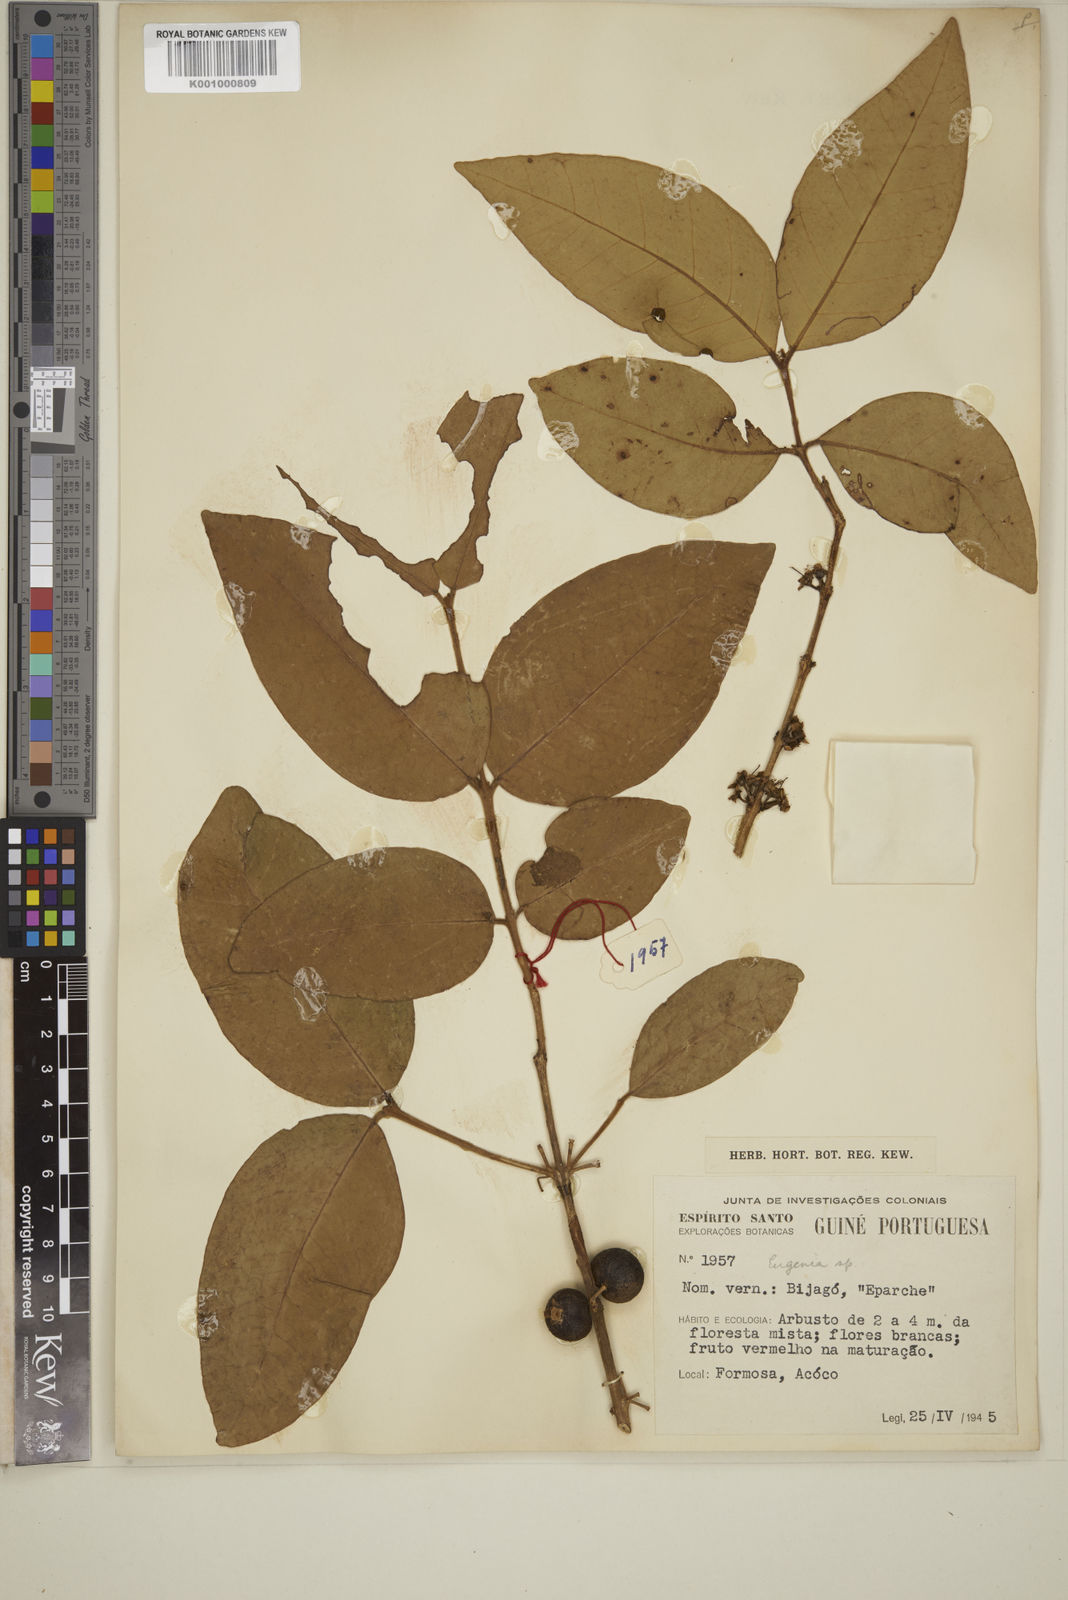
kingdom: Plantae
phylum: Tracheophyta
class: Magnoliopsida
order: Myrtales
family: Myrtaceae
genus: Eugenia
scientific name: Eugenia calophylloides
